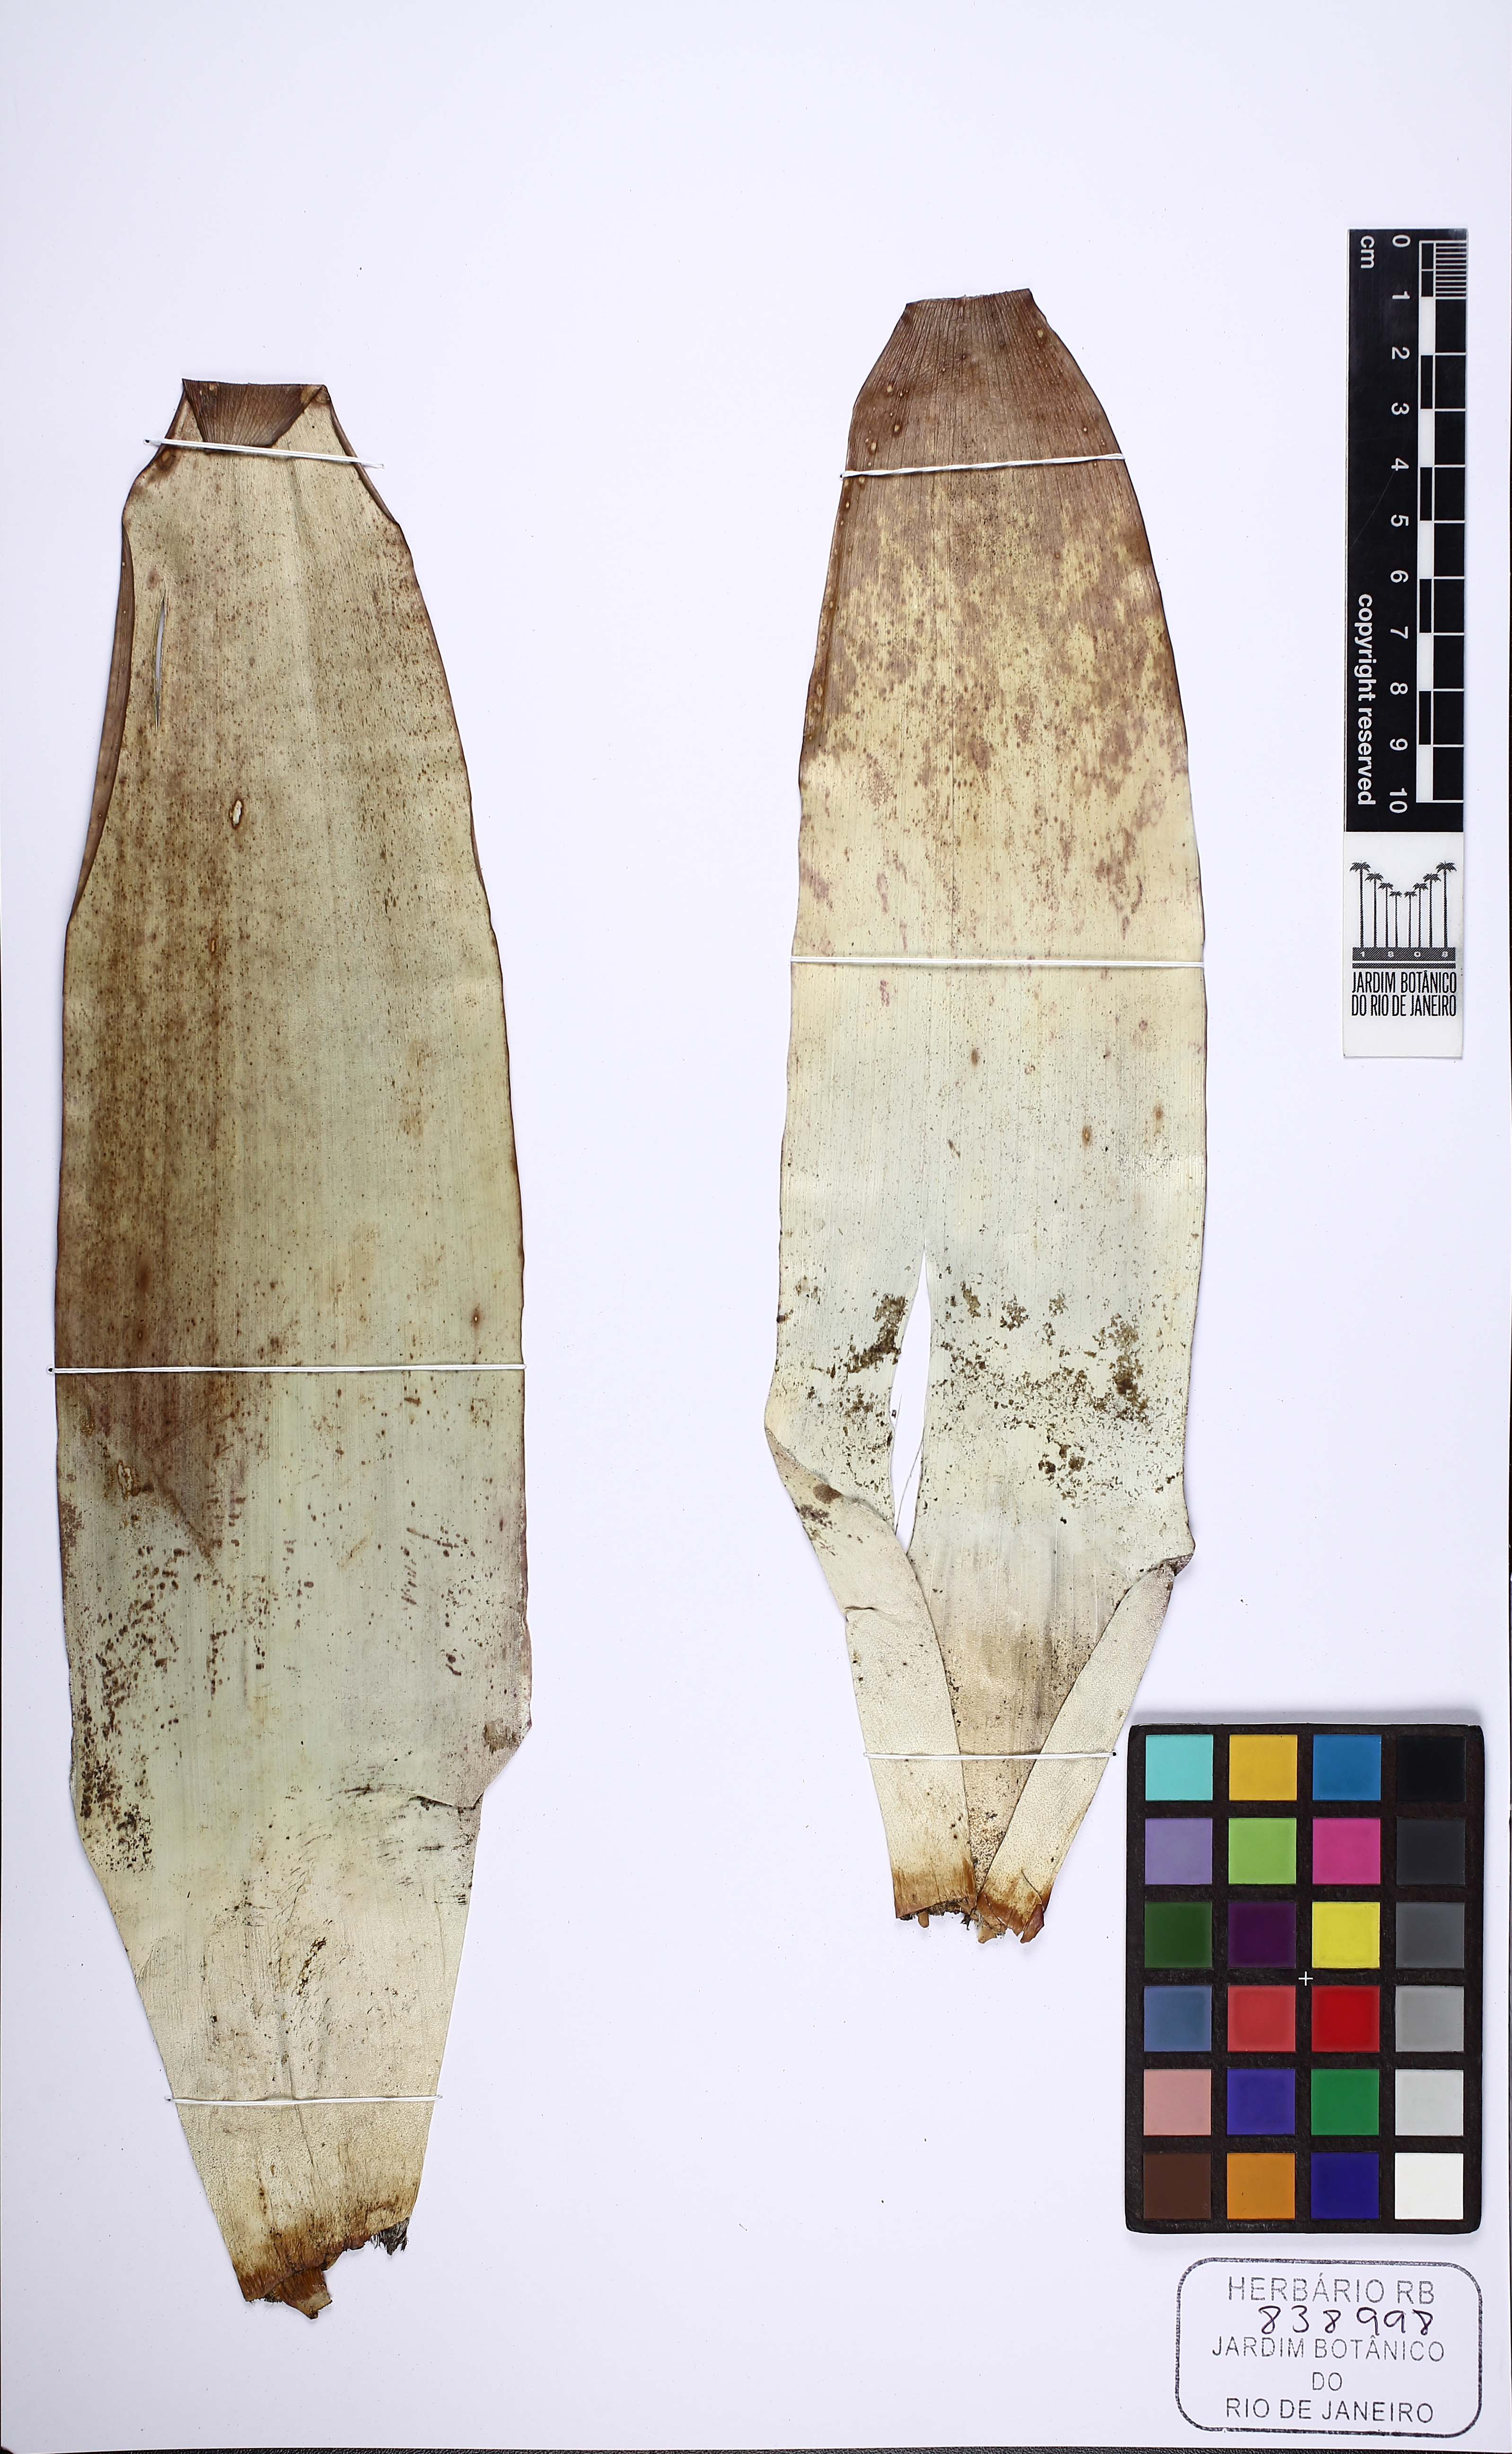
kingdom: Plantae
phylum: Tracheophyta
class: Liliopsida
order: Poales
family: Bromeliaceae
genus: Alcantarea
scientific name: Alcantarea
